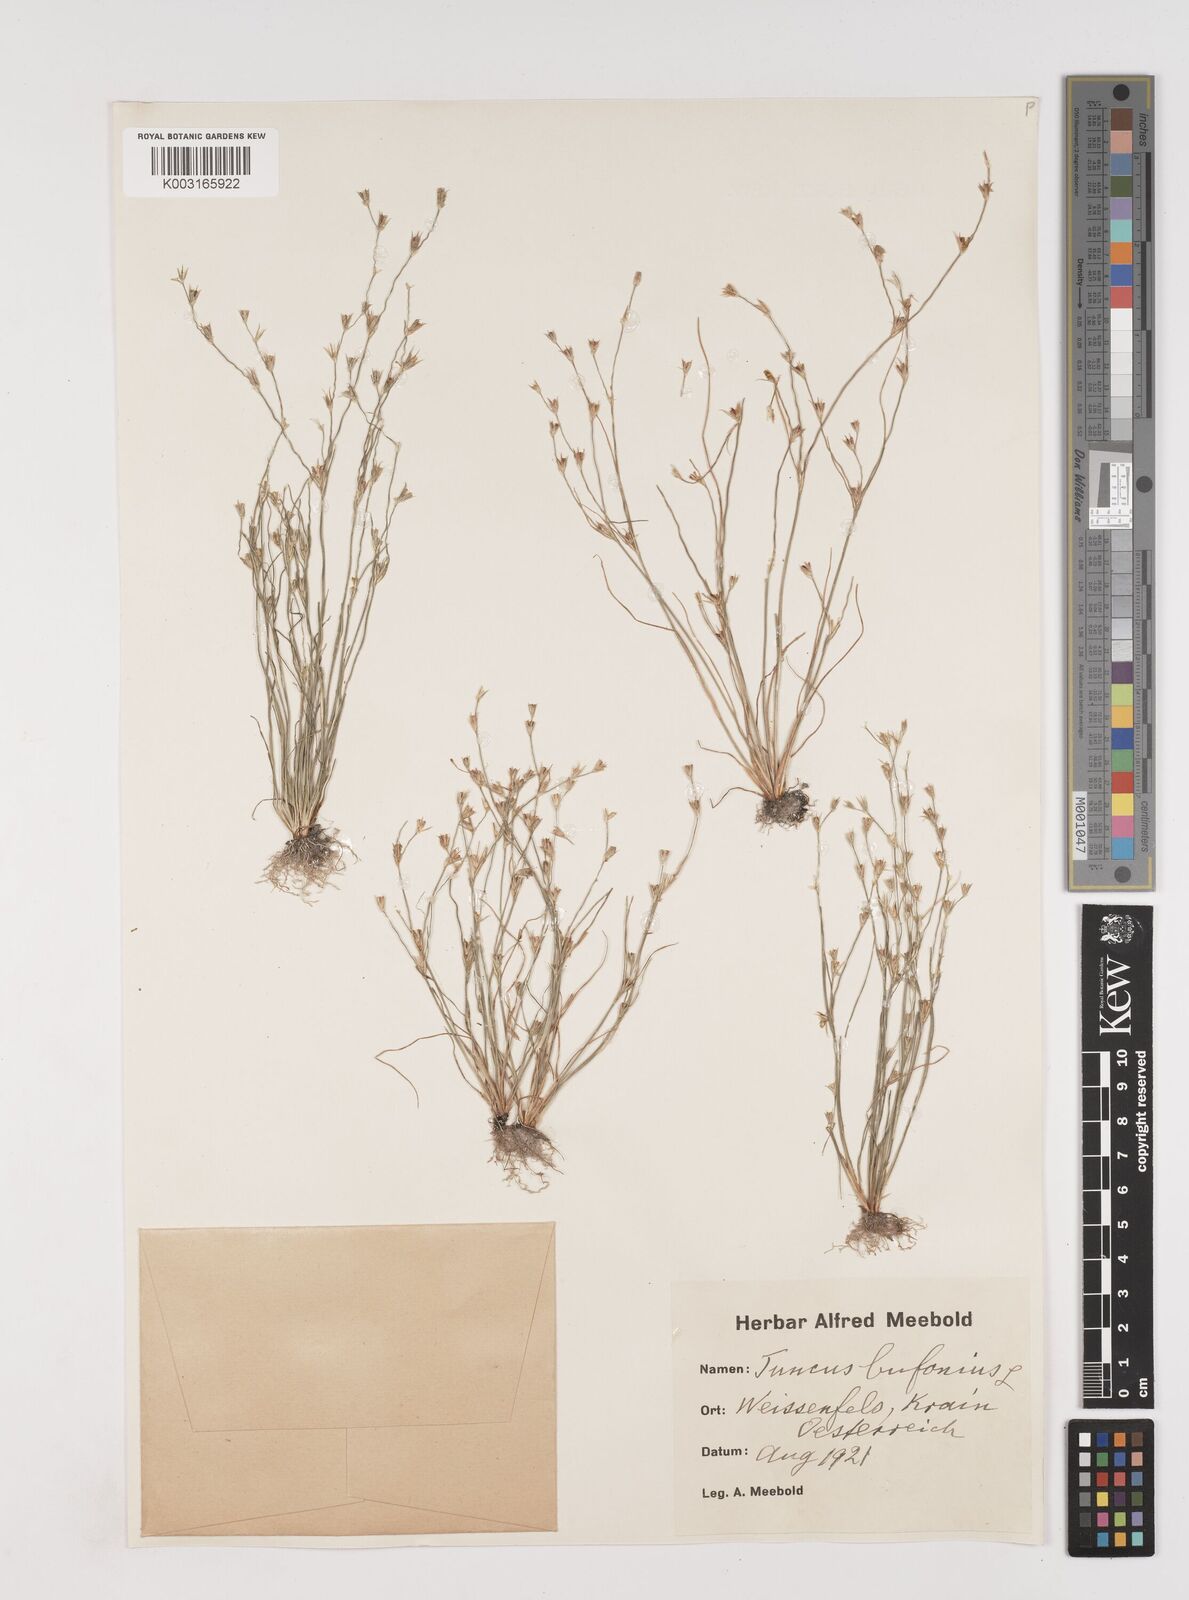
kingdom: Plantae
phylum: Tracheophyta
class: Liliopsida
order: Poales
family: Juncaceae
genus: Juncus
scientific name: Juncus bufonius
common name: Toad rush
